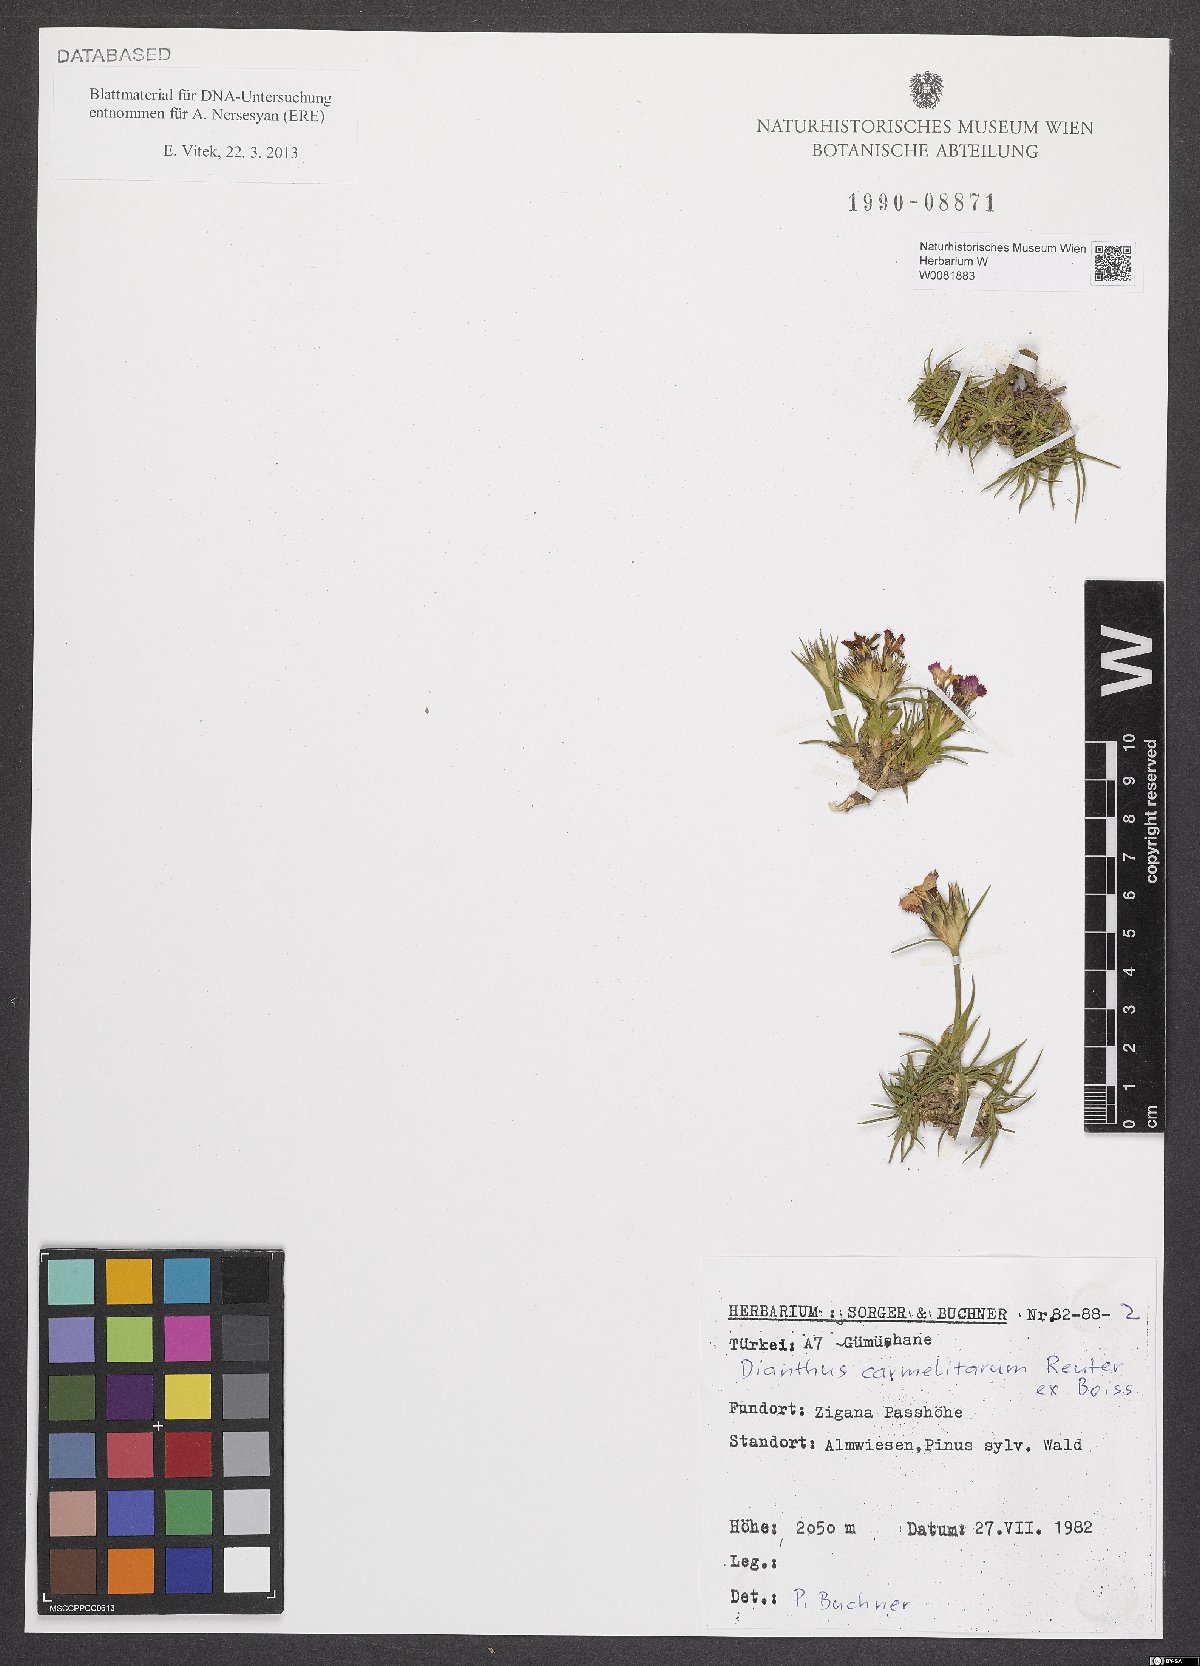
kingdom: Plantae
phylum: Tracheophyta
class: Magnoliopsida
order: Caryophyllales
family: Caryophyllaceae
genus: Dianthus
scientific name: Dianthus carmelitarum
